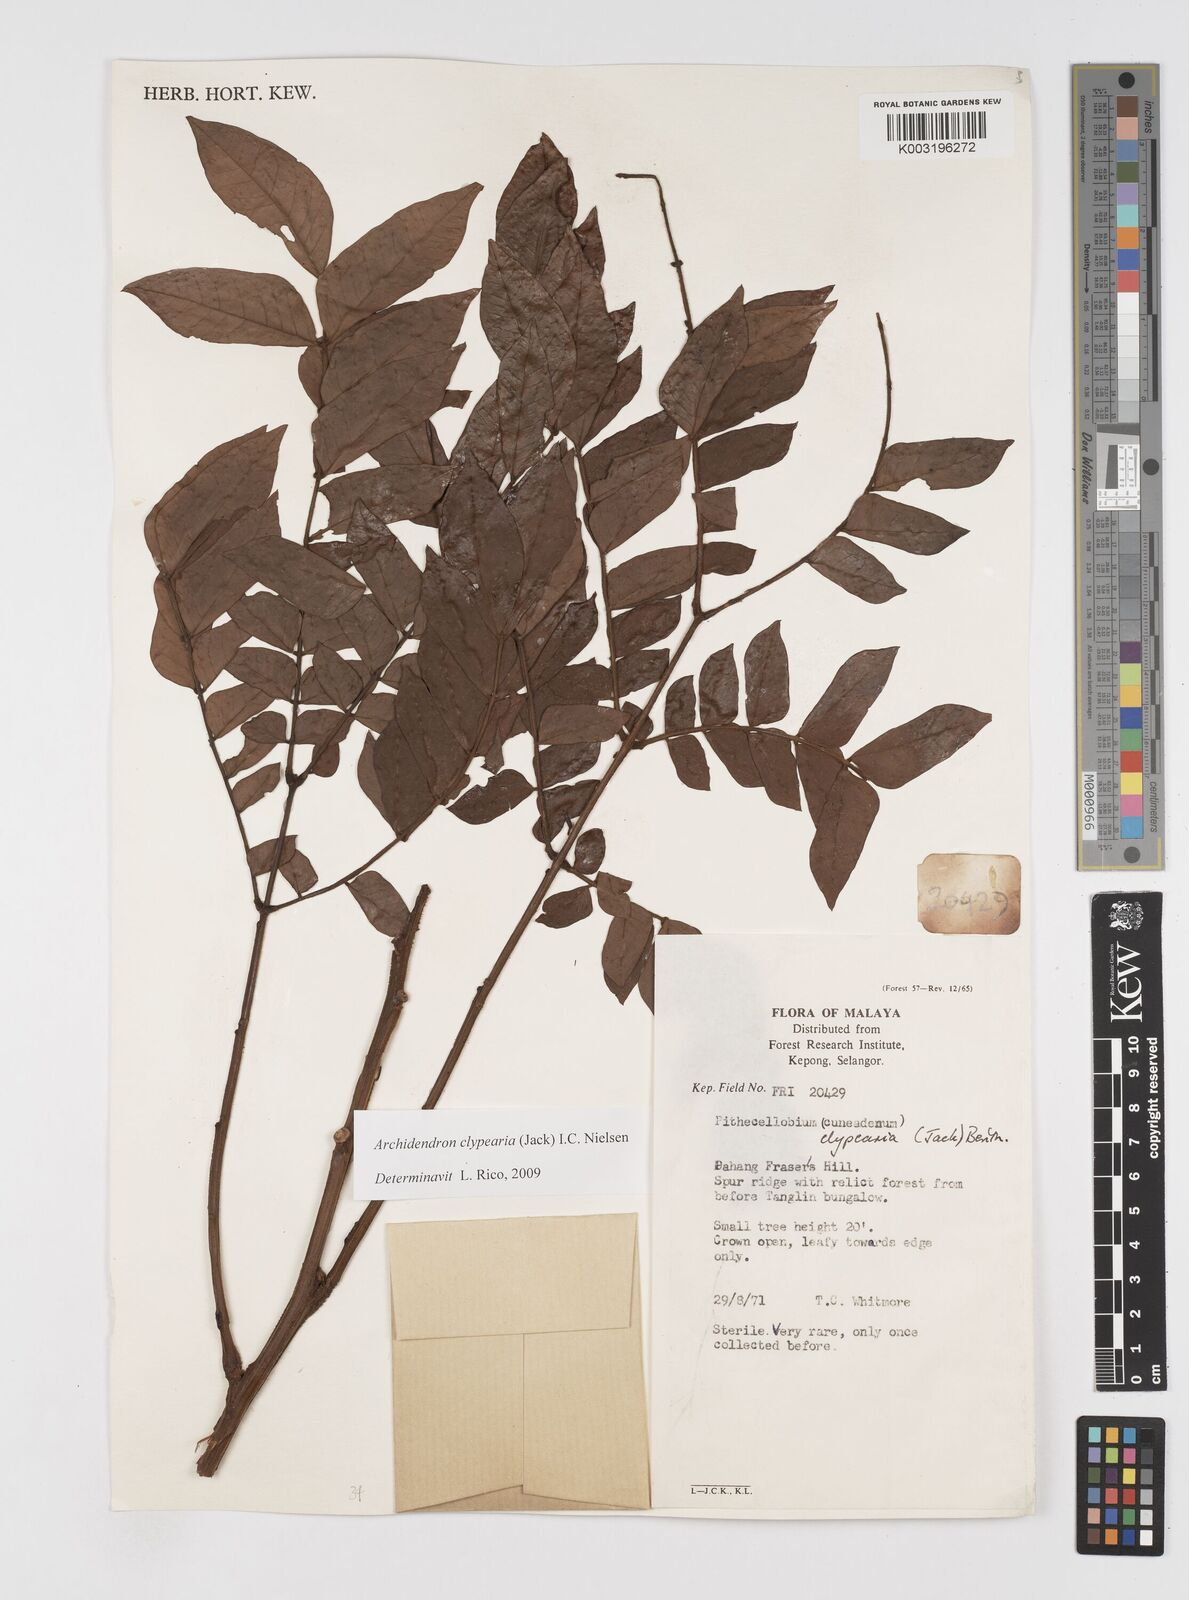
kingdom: Plantae
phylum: Tracheophyta
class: Magnoliopsida
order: Fabales
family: Fabaceae
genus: Archidendron
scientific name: Archidendron clypearia
